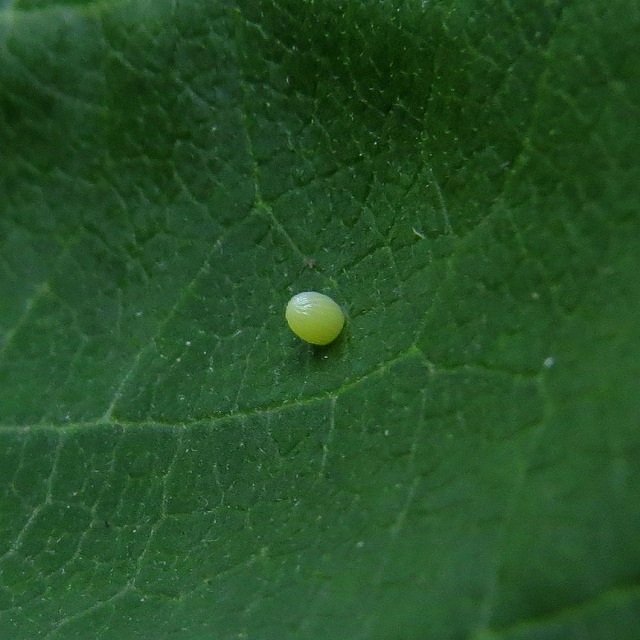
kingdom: Animalia
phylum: Arthropoda
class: Insecta
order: Lepidoptera
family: Nymphalidae
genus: Danaus
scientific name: Danaus plexippus
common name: Monarch
